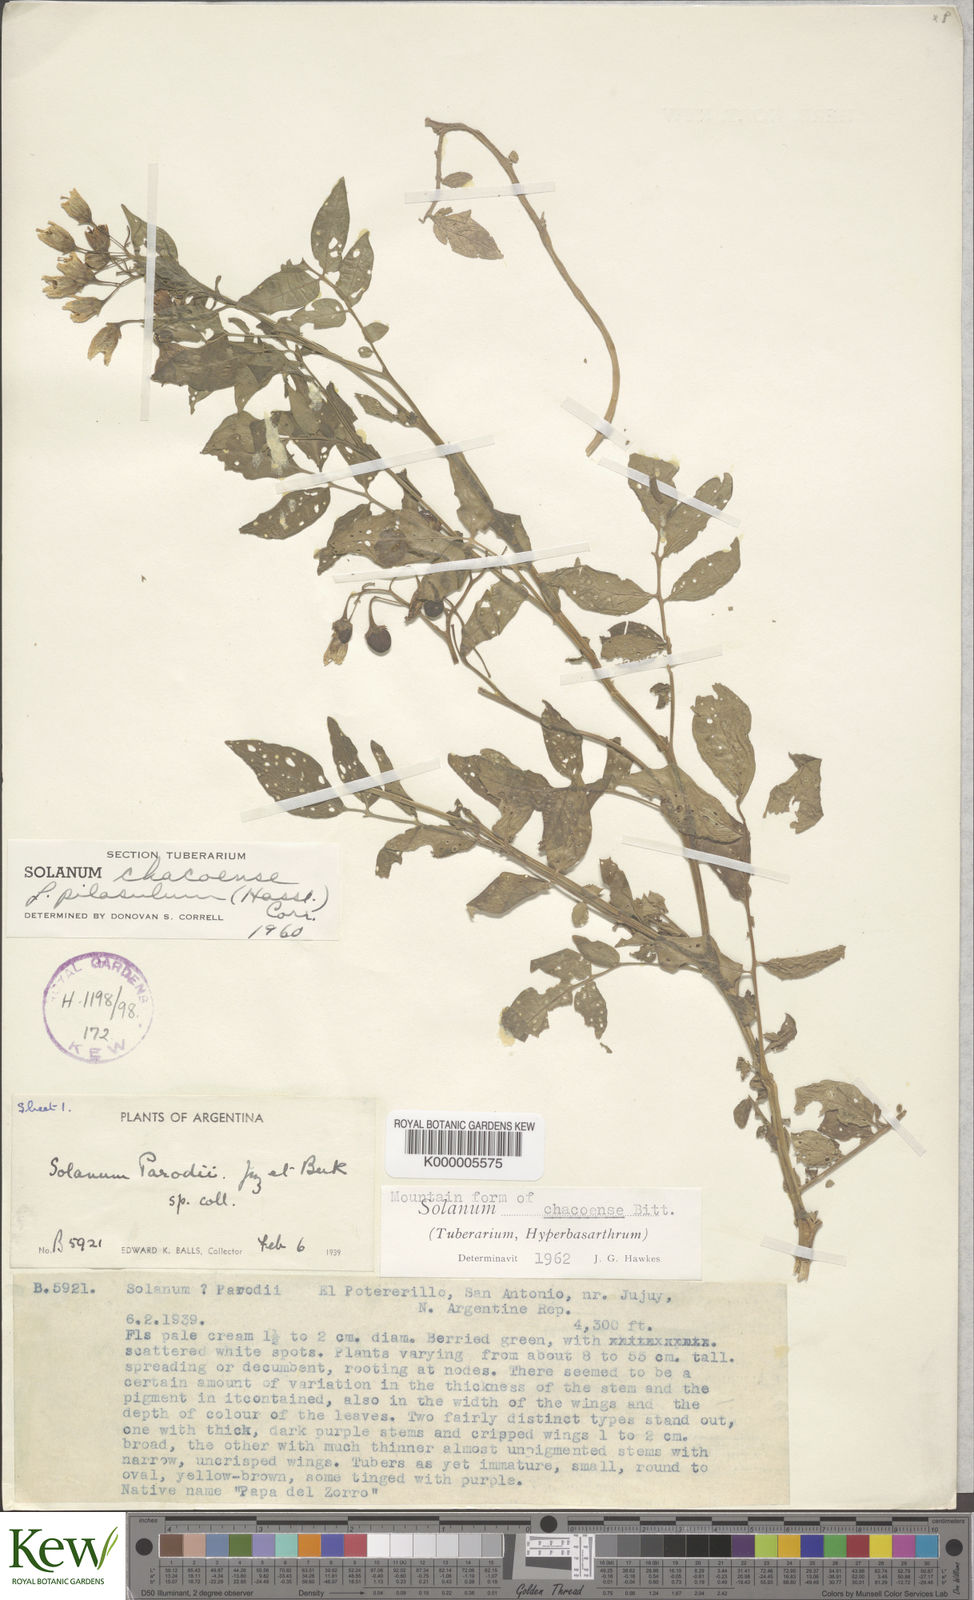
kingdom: Plantae
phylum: Tracheophyta
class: Magnoliopsida
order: Solanales
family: Solanaceae
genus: Solanum
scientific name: Solanum chacoense
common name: Chaco potato
